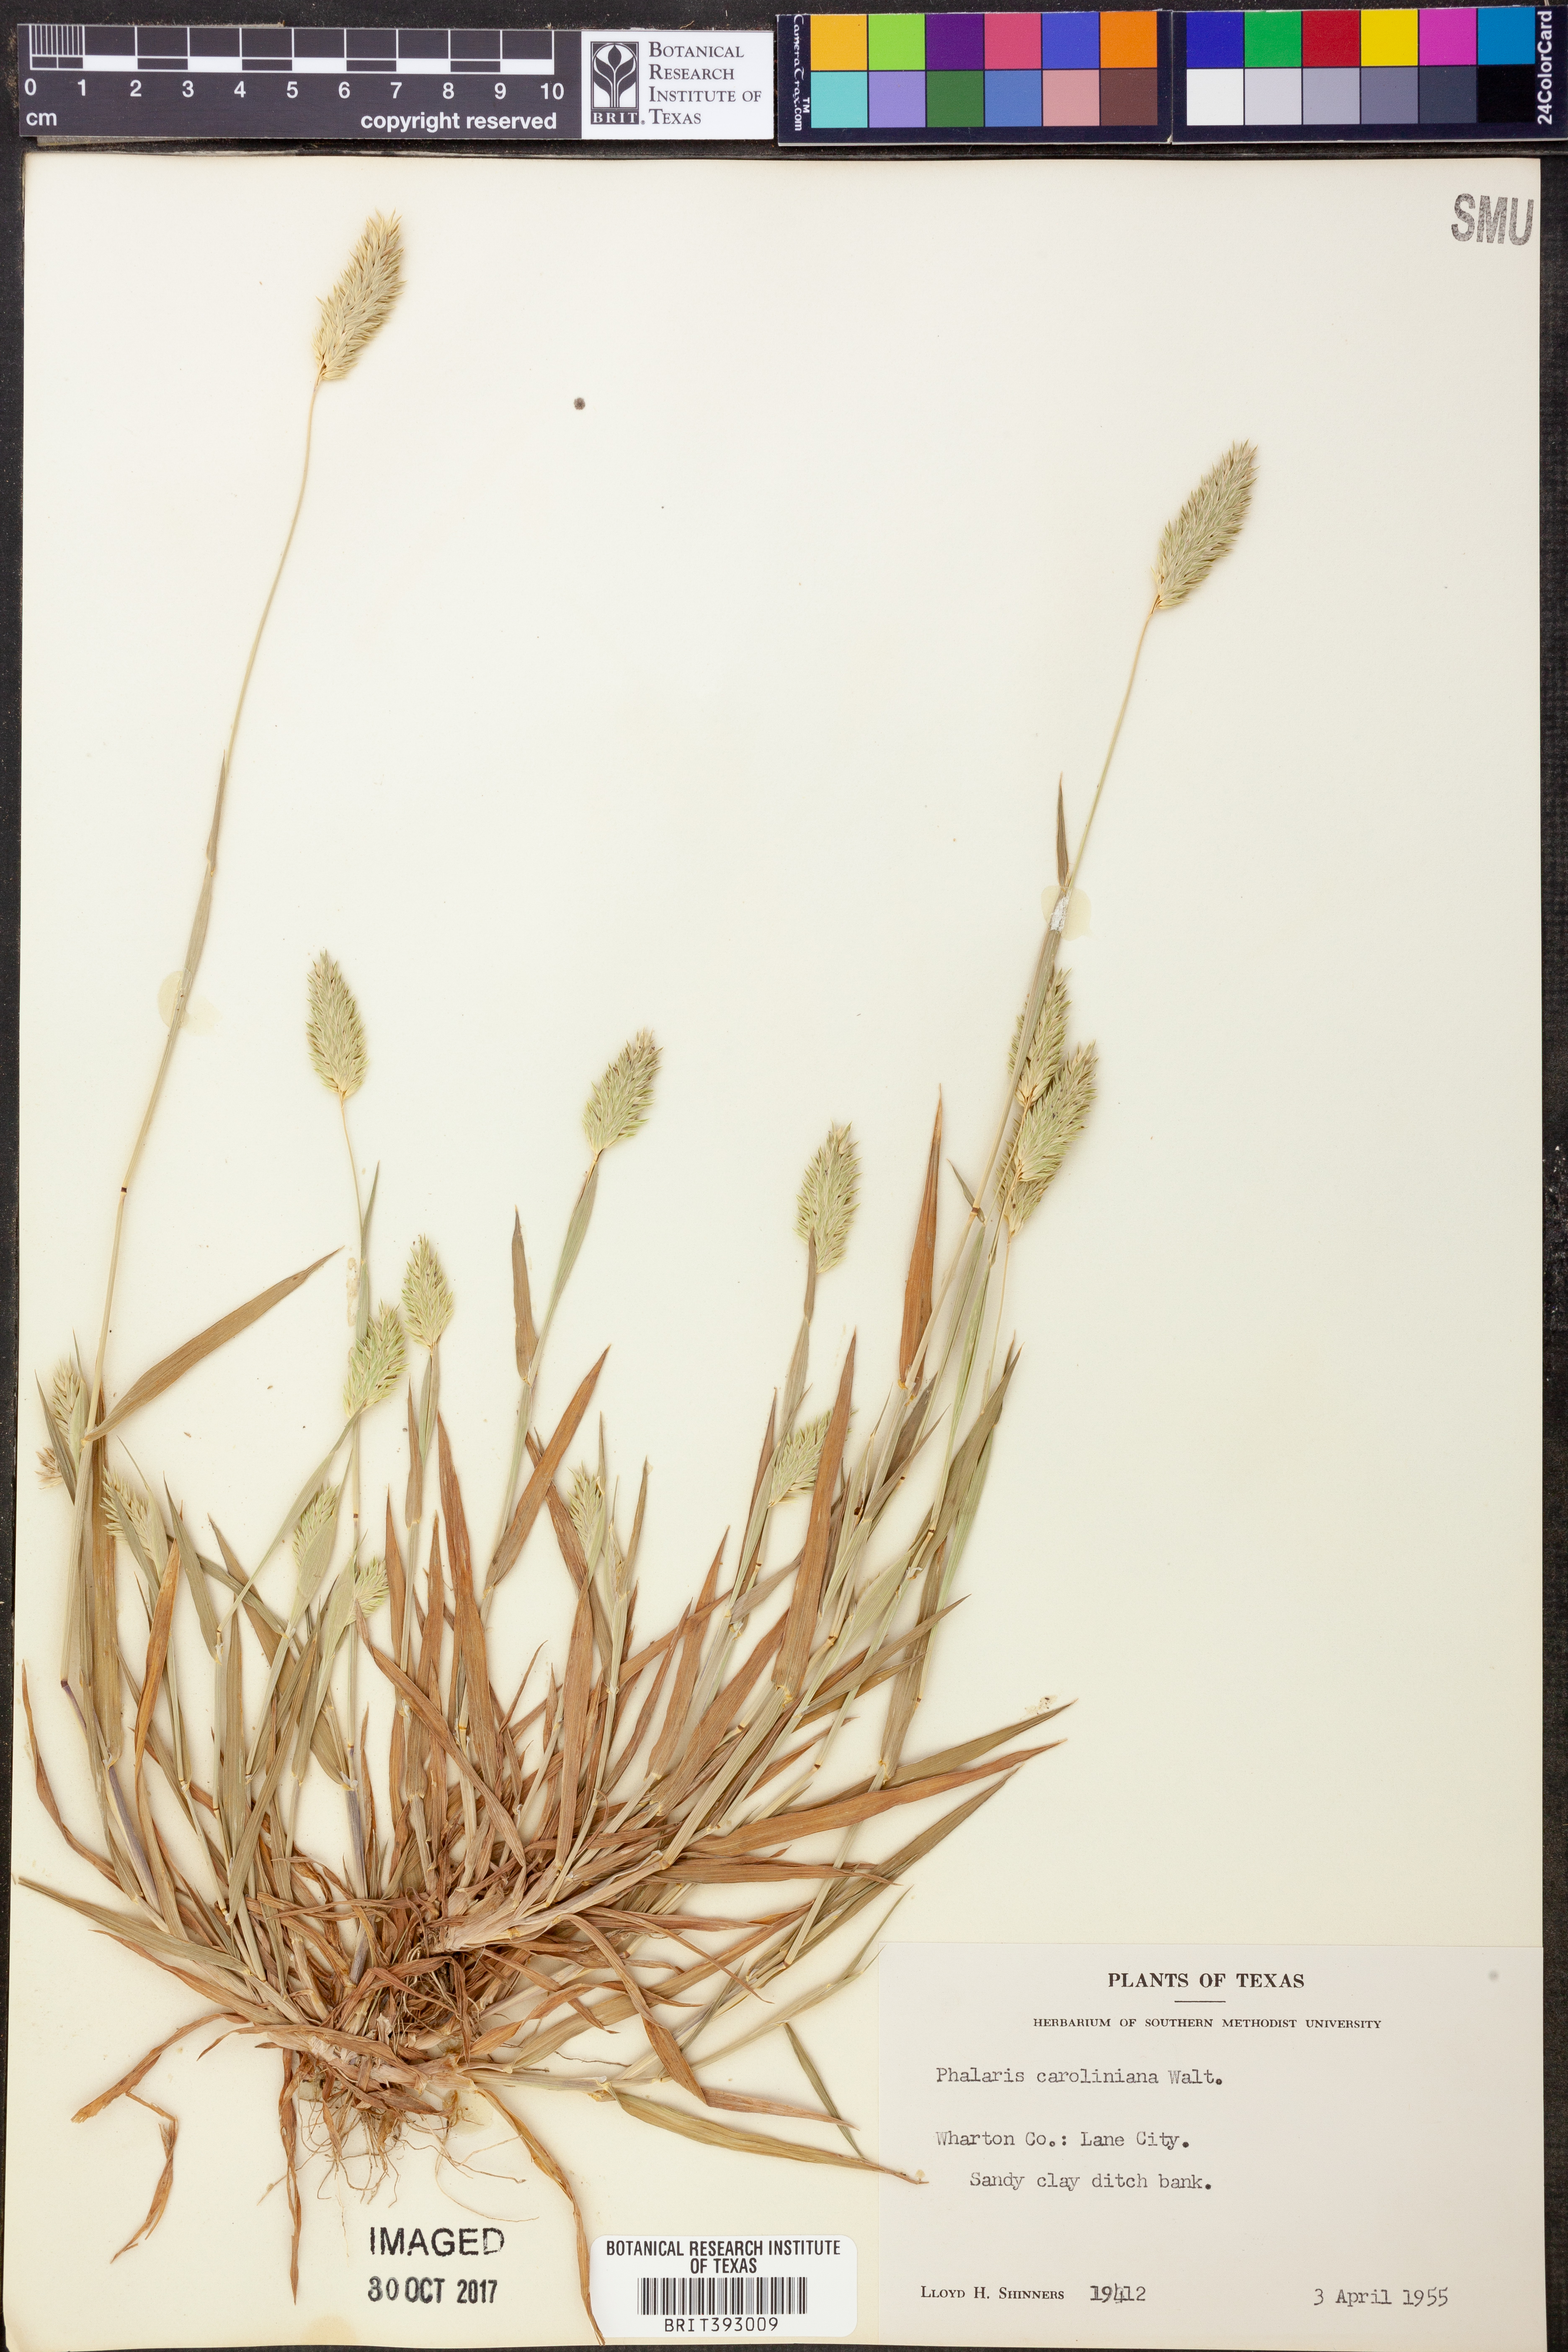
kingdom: Plantae
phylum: Tracheophyta
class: Liliopsida
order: Poales
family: Poaceae
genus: Phalaris
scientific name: Phalaris caroliniana
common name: May grass
